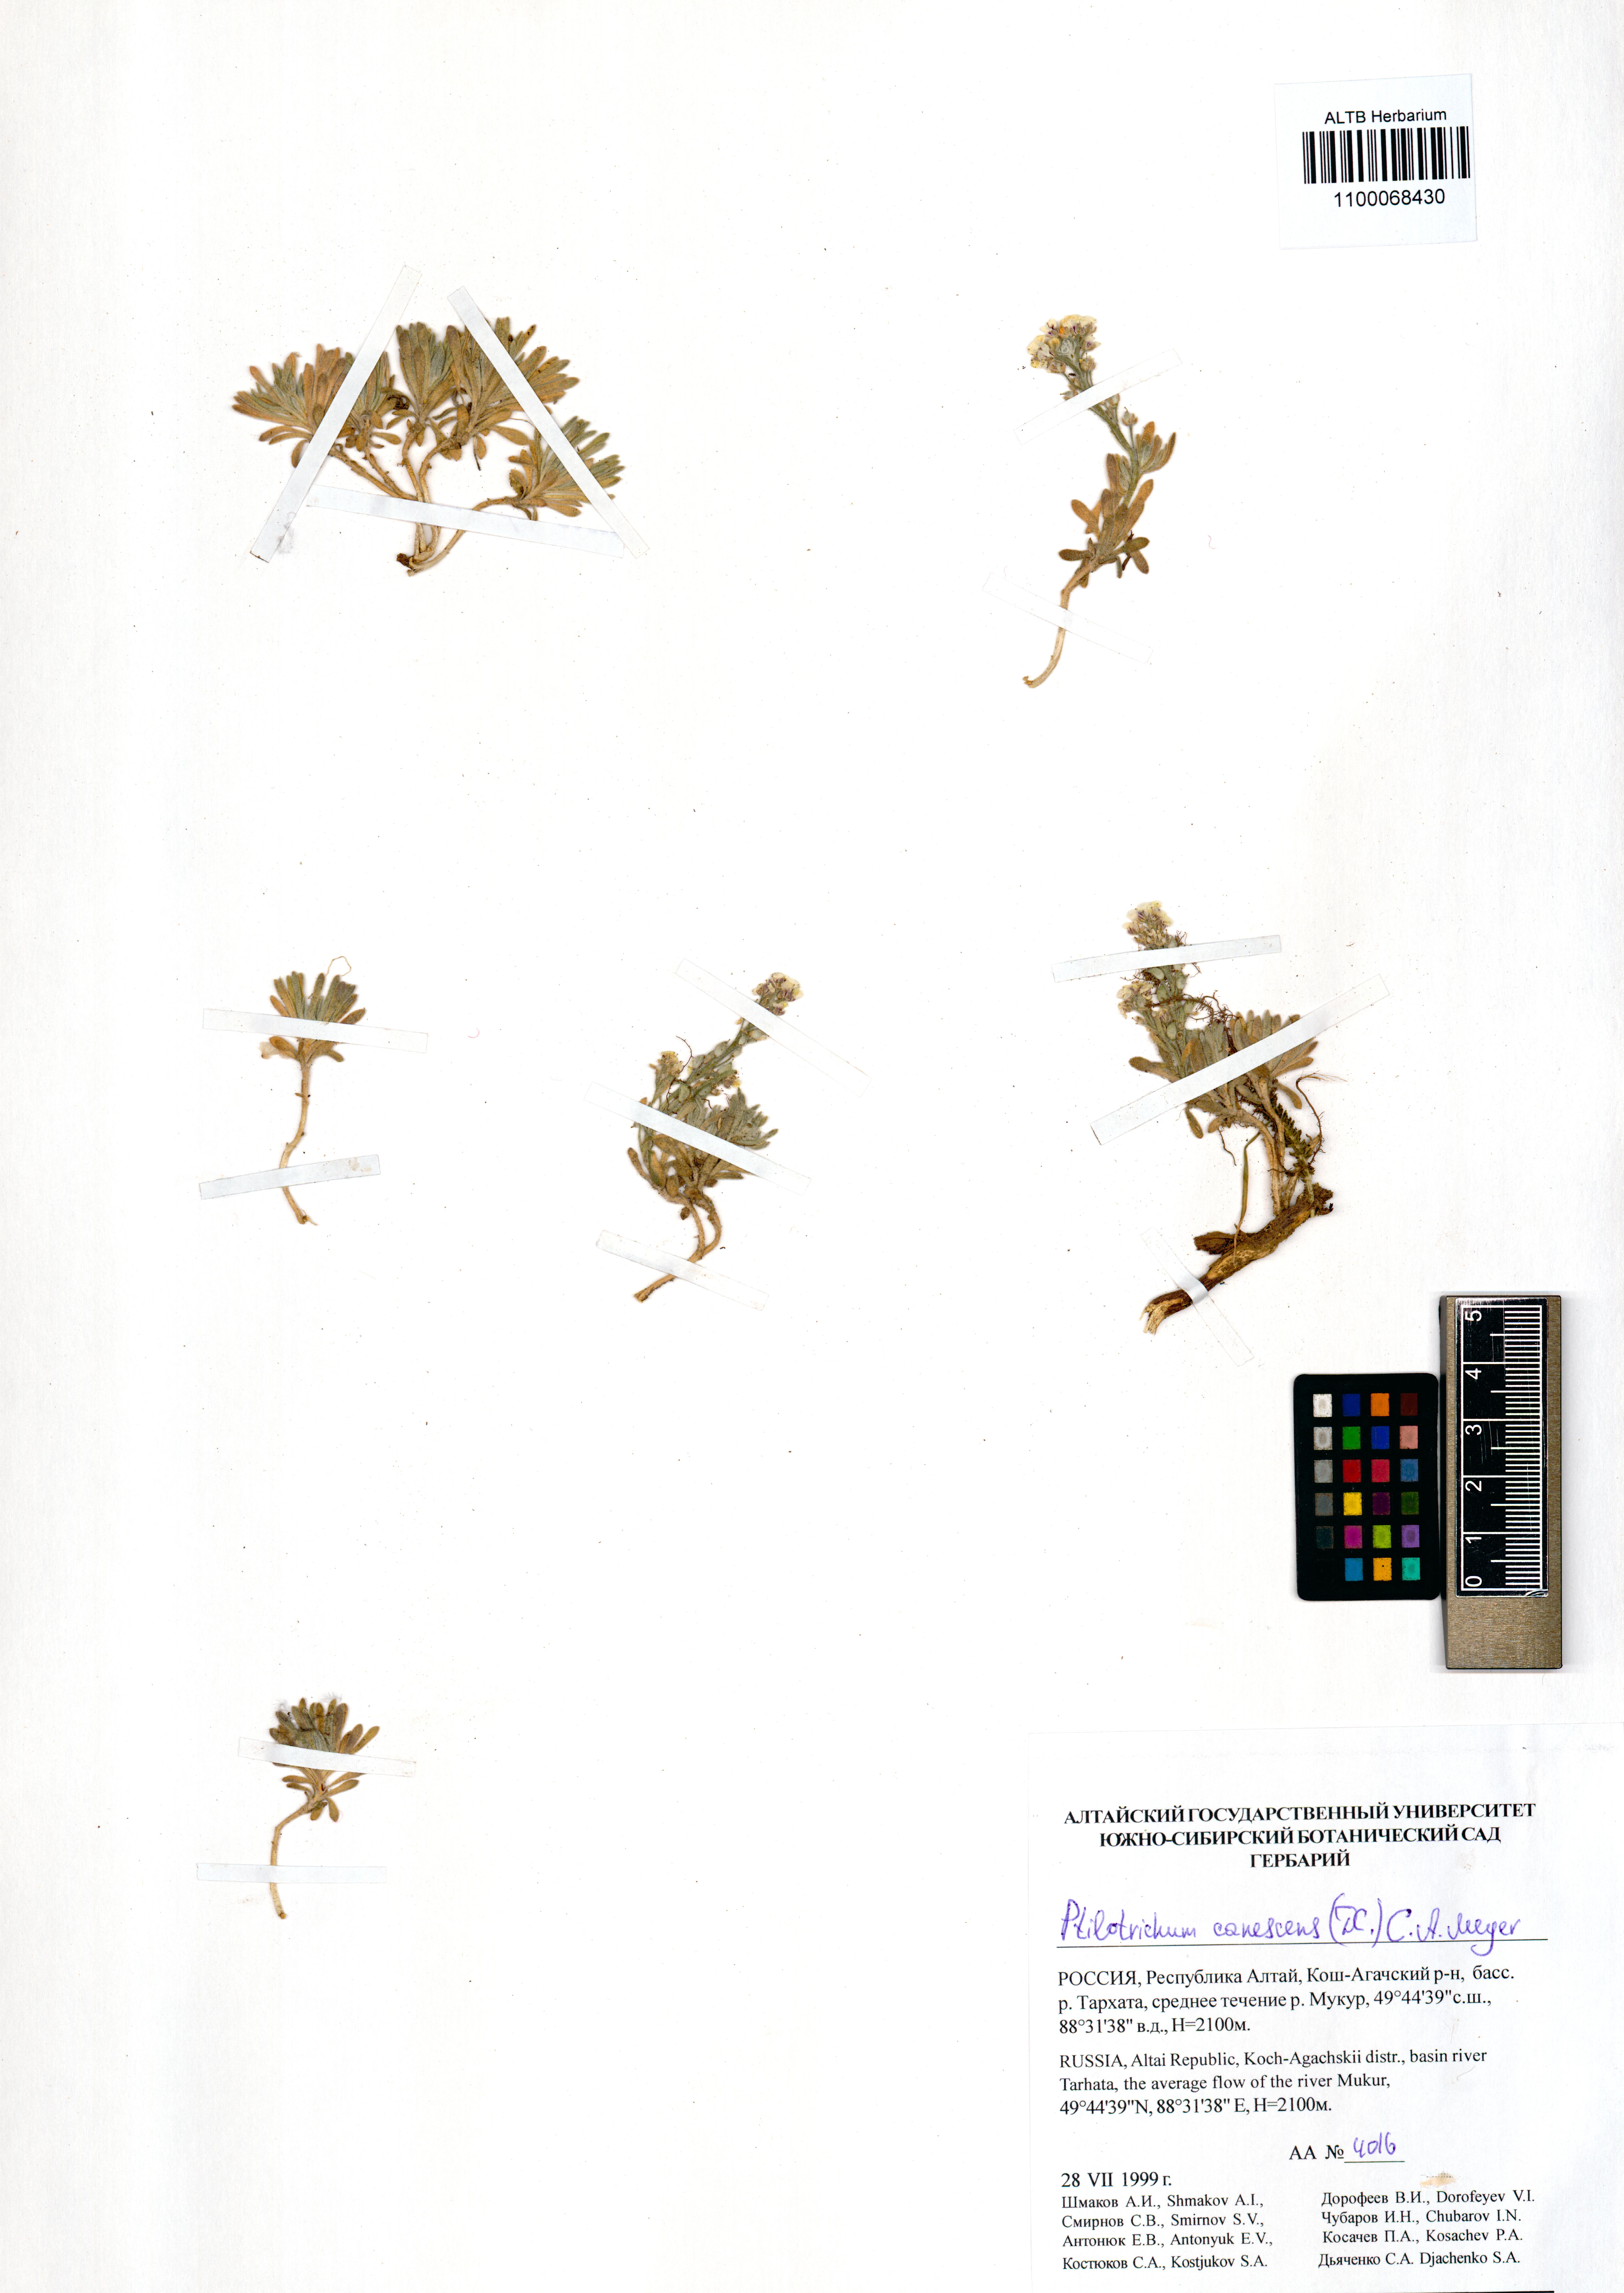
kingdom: Plantae
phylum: Tracheophyta
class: Magnoliopsida
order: Brassicales
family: Brassicaceae
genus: Stevenia
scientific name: Stevenia canescens
